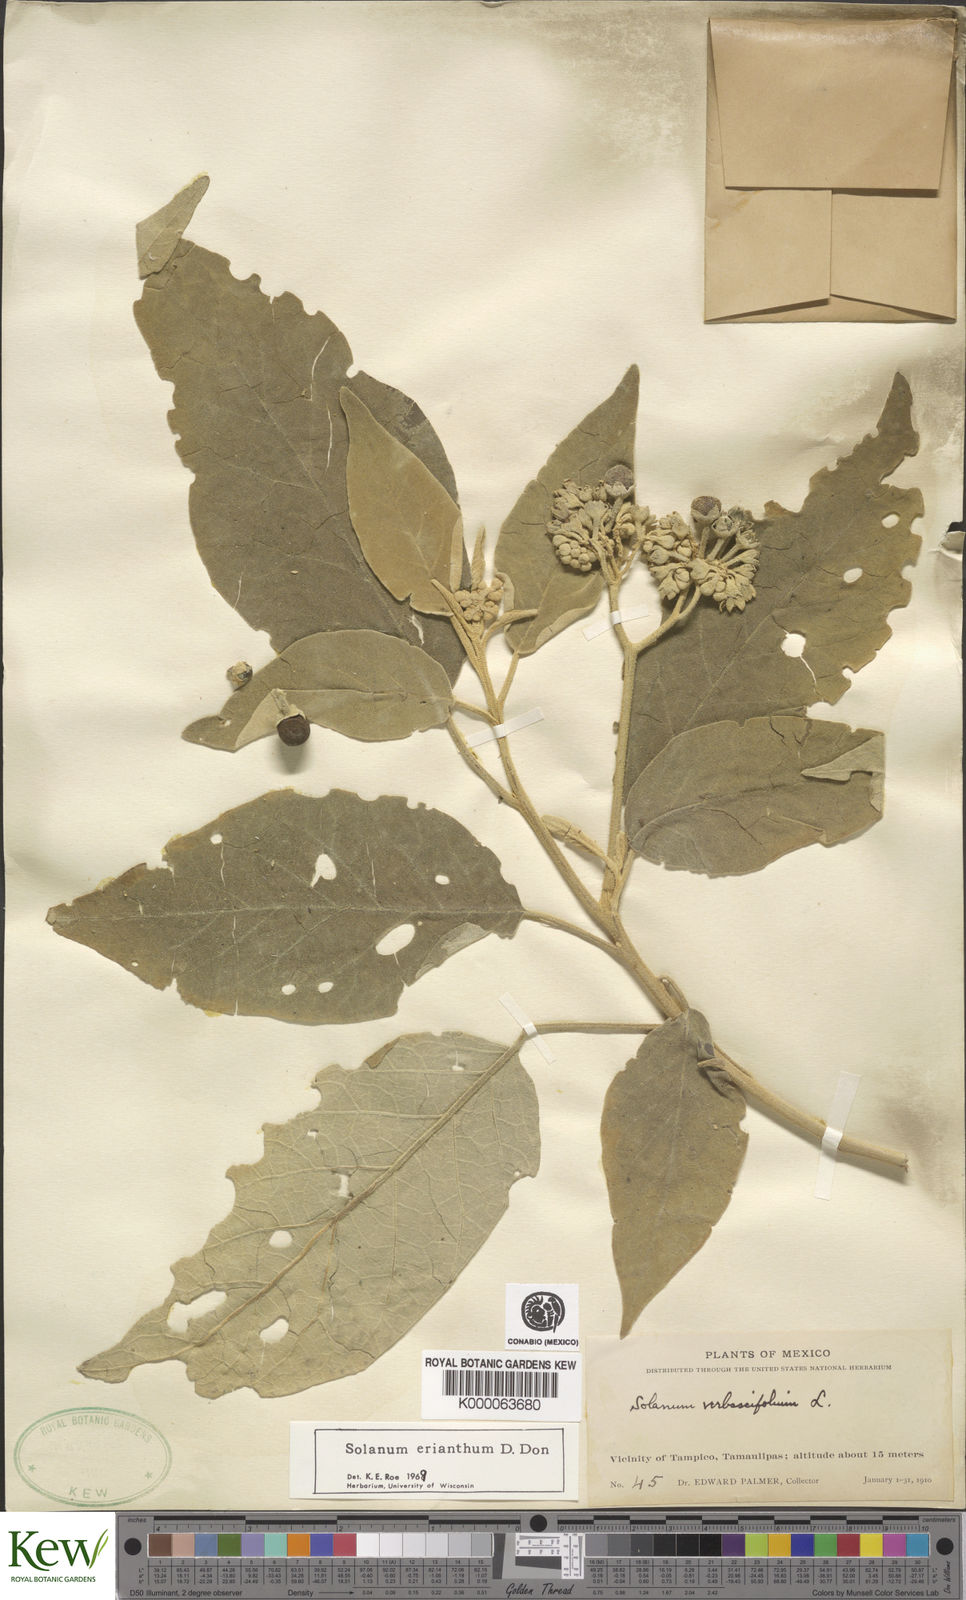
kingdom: Plantae
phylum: Tracheophyta
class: Magnoliopsida
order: Solanales
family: Solanaceae
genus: Solanum
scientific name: Solanum erianthum
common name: Tobacco-tree
